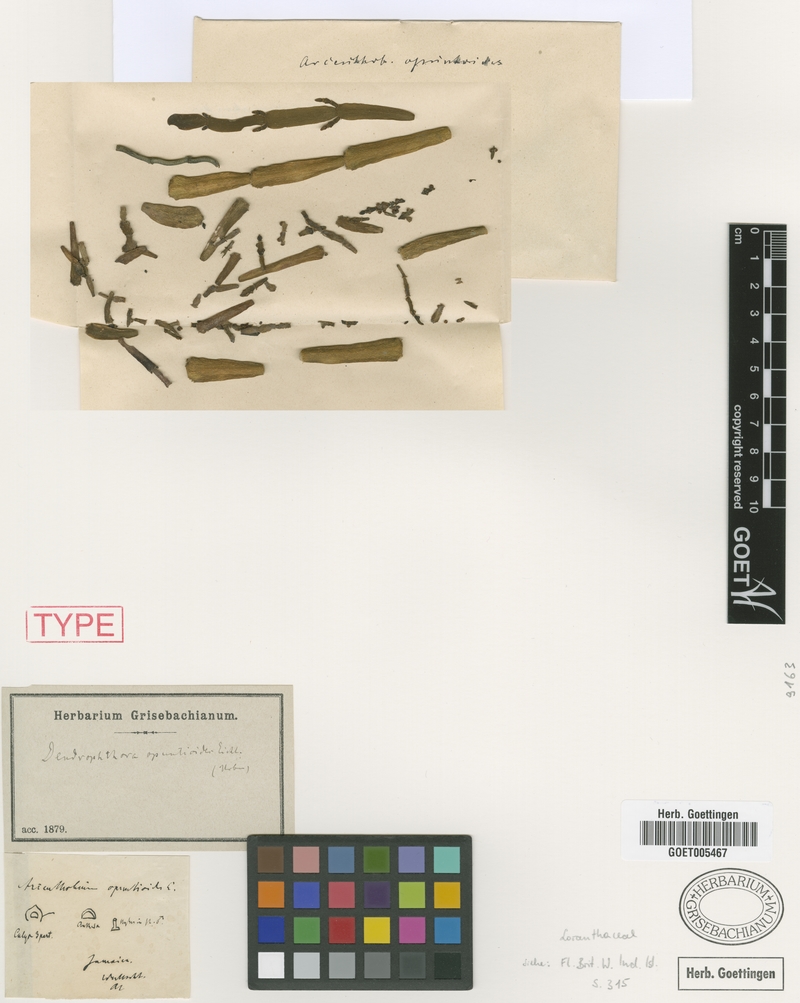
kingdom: Plantae
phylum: Tracheophyta
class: Magnoliopsida
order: Santalales
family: Viscaceae
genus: Dendrophthora
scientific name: Dendrophthora opuntioides
